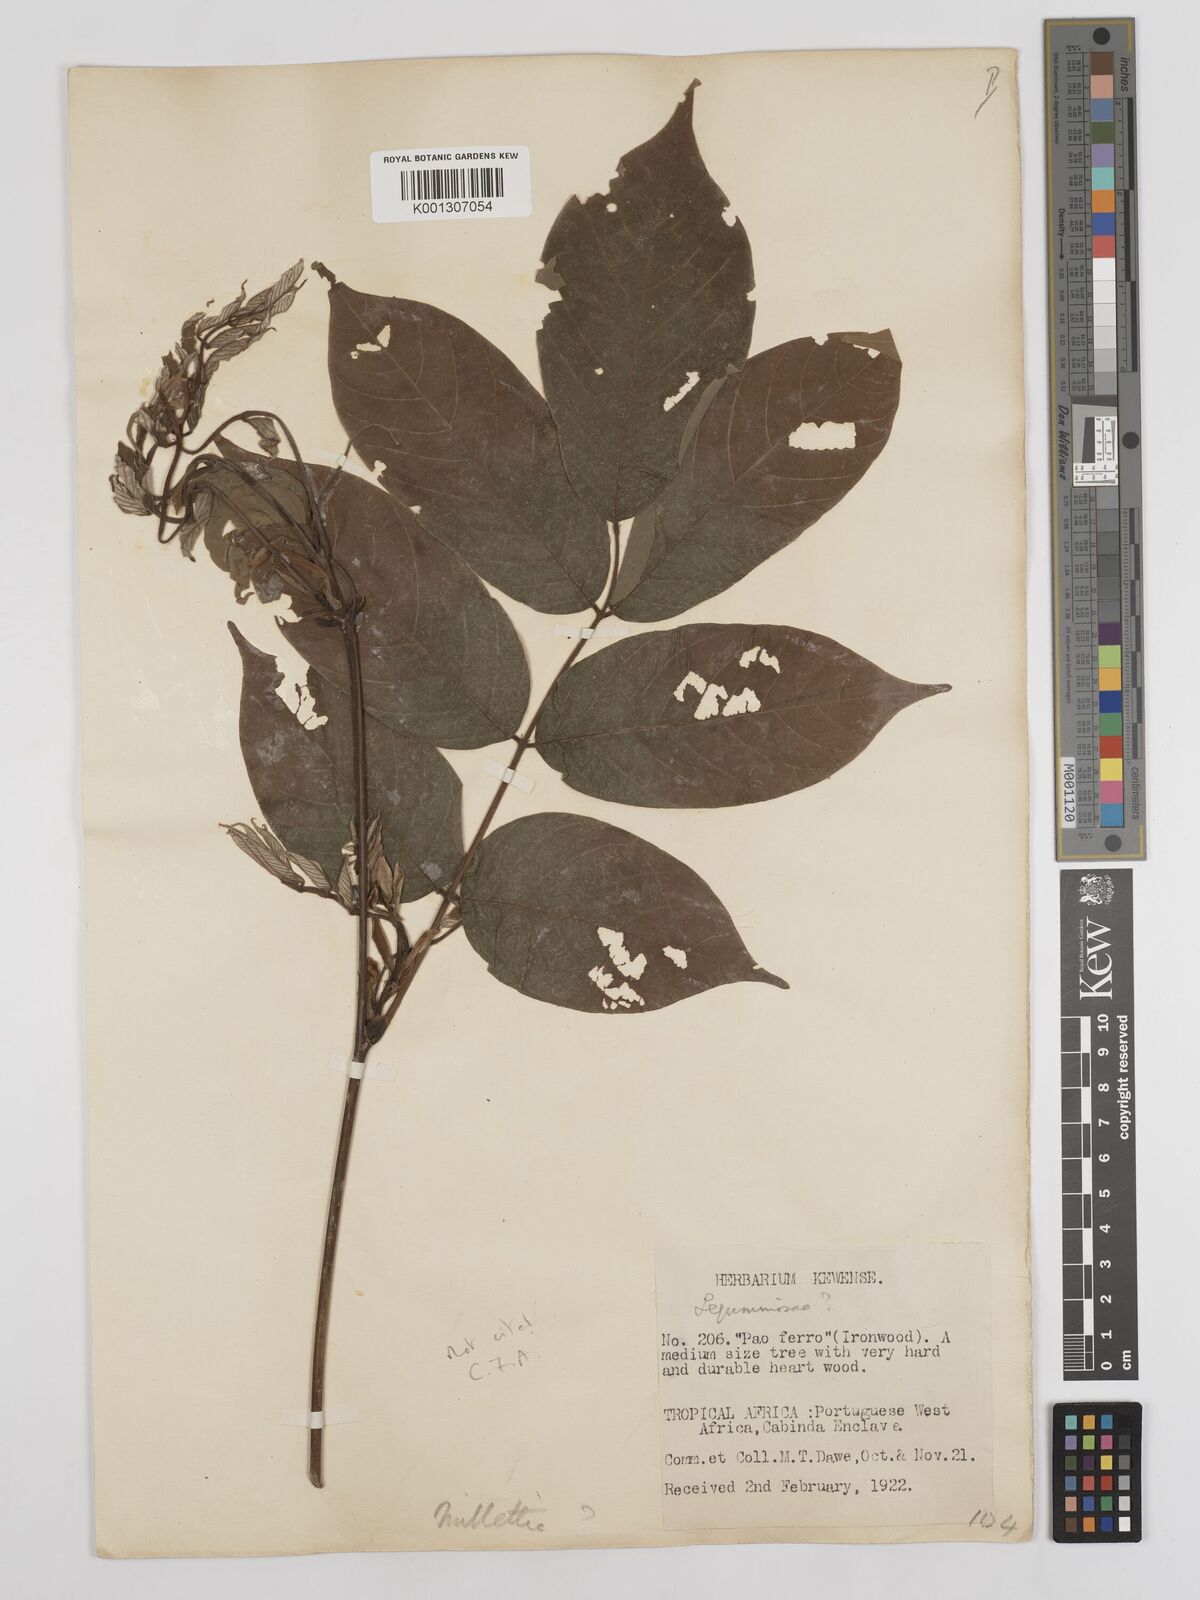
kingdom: Plantae
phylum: Tracheophyta
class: Magnoliopsida
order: Fabales
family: Fabaceae
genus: Millettia
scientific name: Millettia
